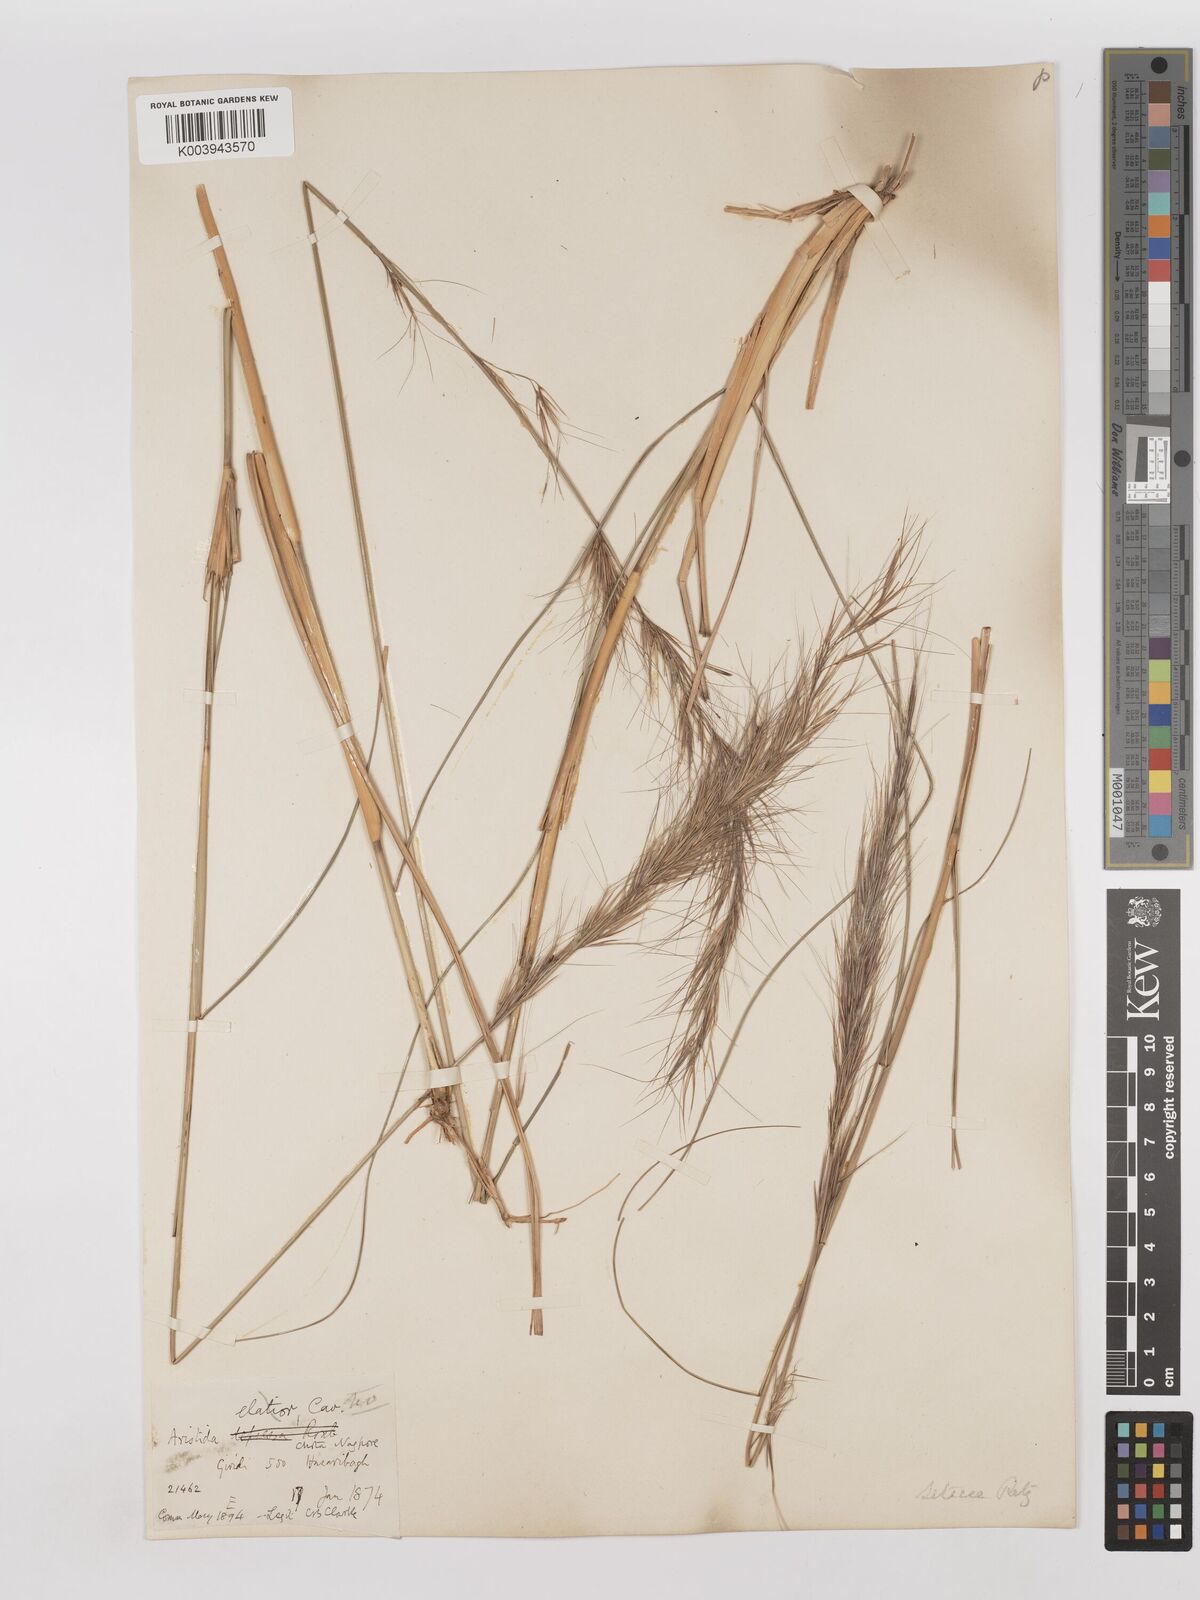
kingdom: Plantae
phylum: Tracheophyta
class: Liliopsida
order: Poales
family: Poaceae
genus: Aristida
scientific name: Aristida setacea
